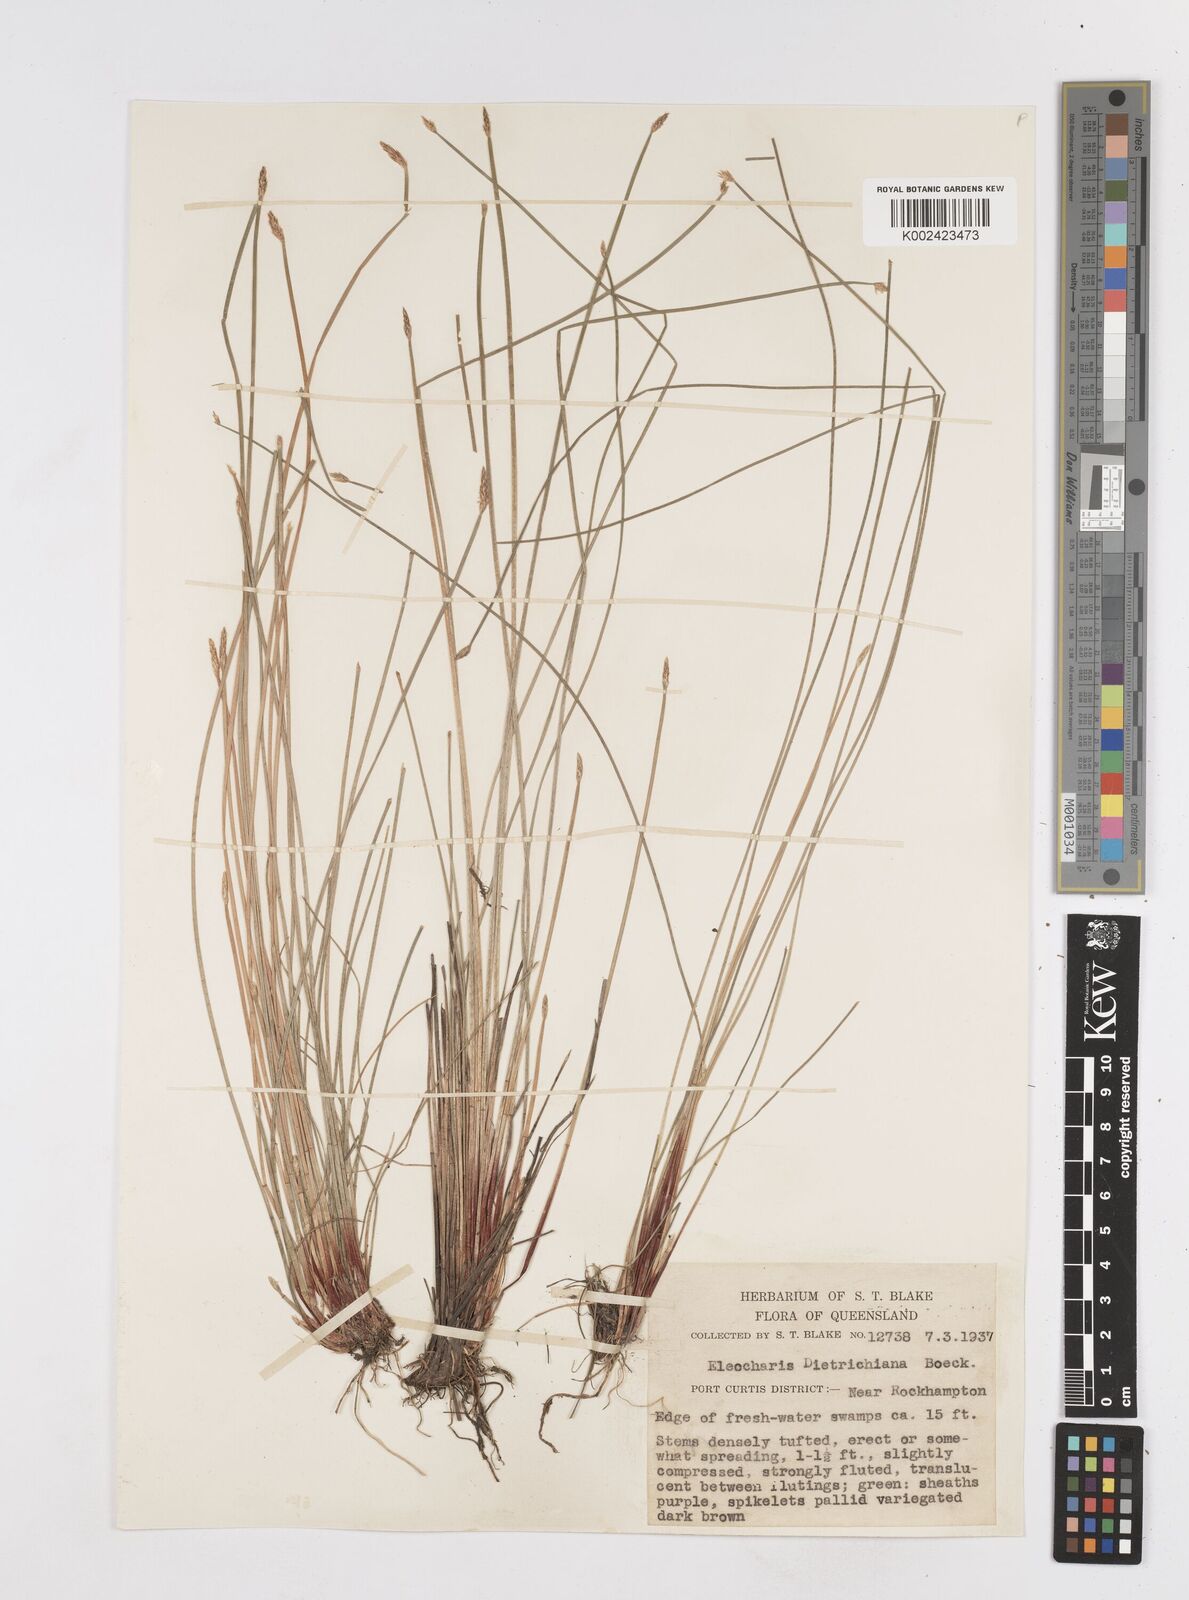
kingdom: Plantae
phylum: Tracheophyta
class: Liliopsida
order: Poales
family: Cyperaceae
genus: Eleocharis
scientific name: Eleocharis dietrichiana
